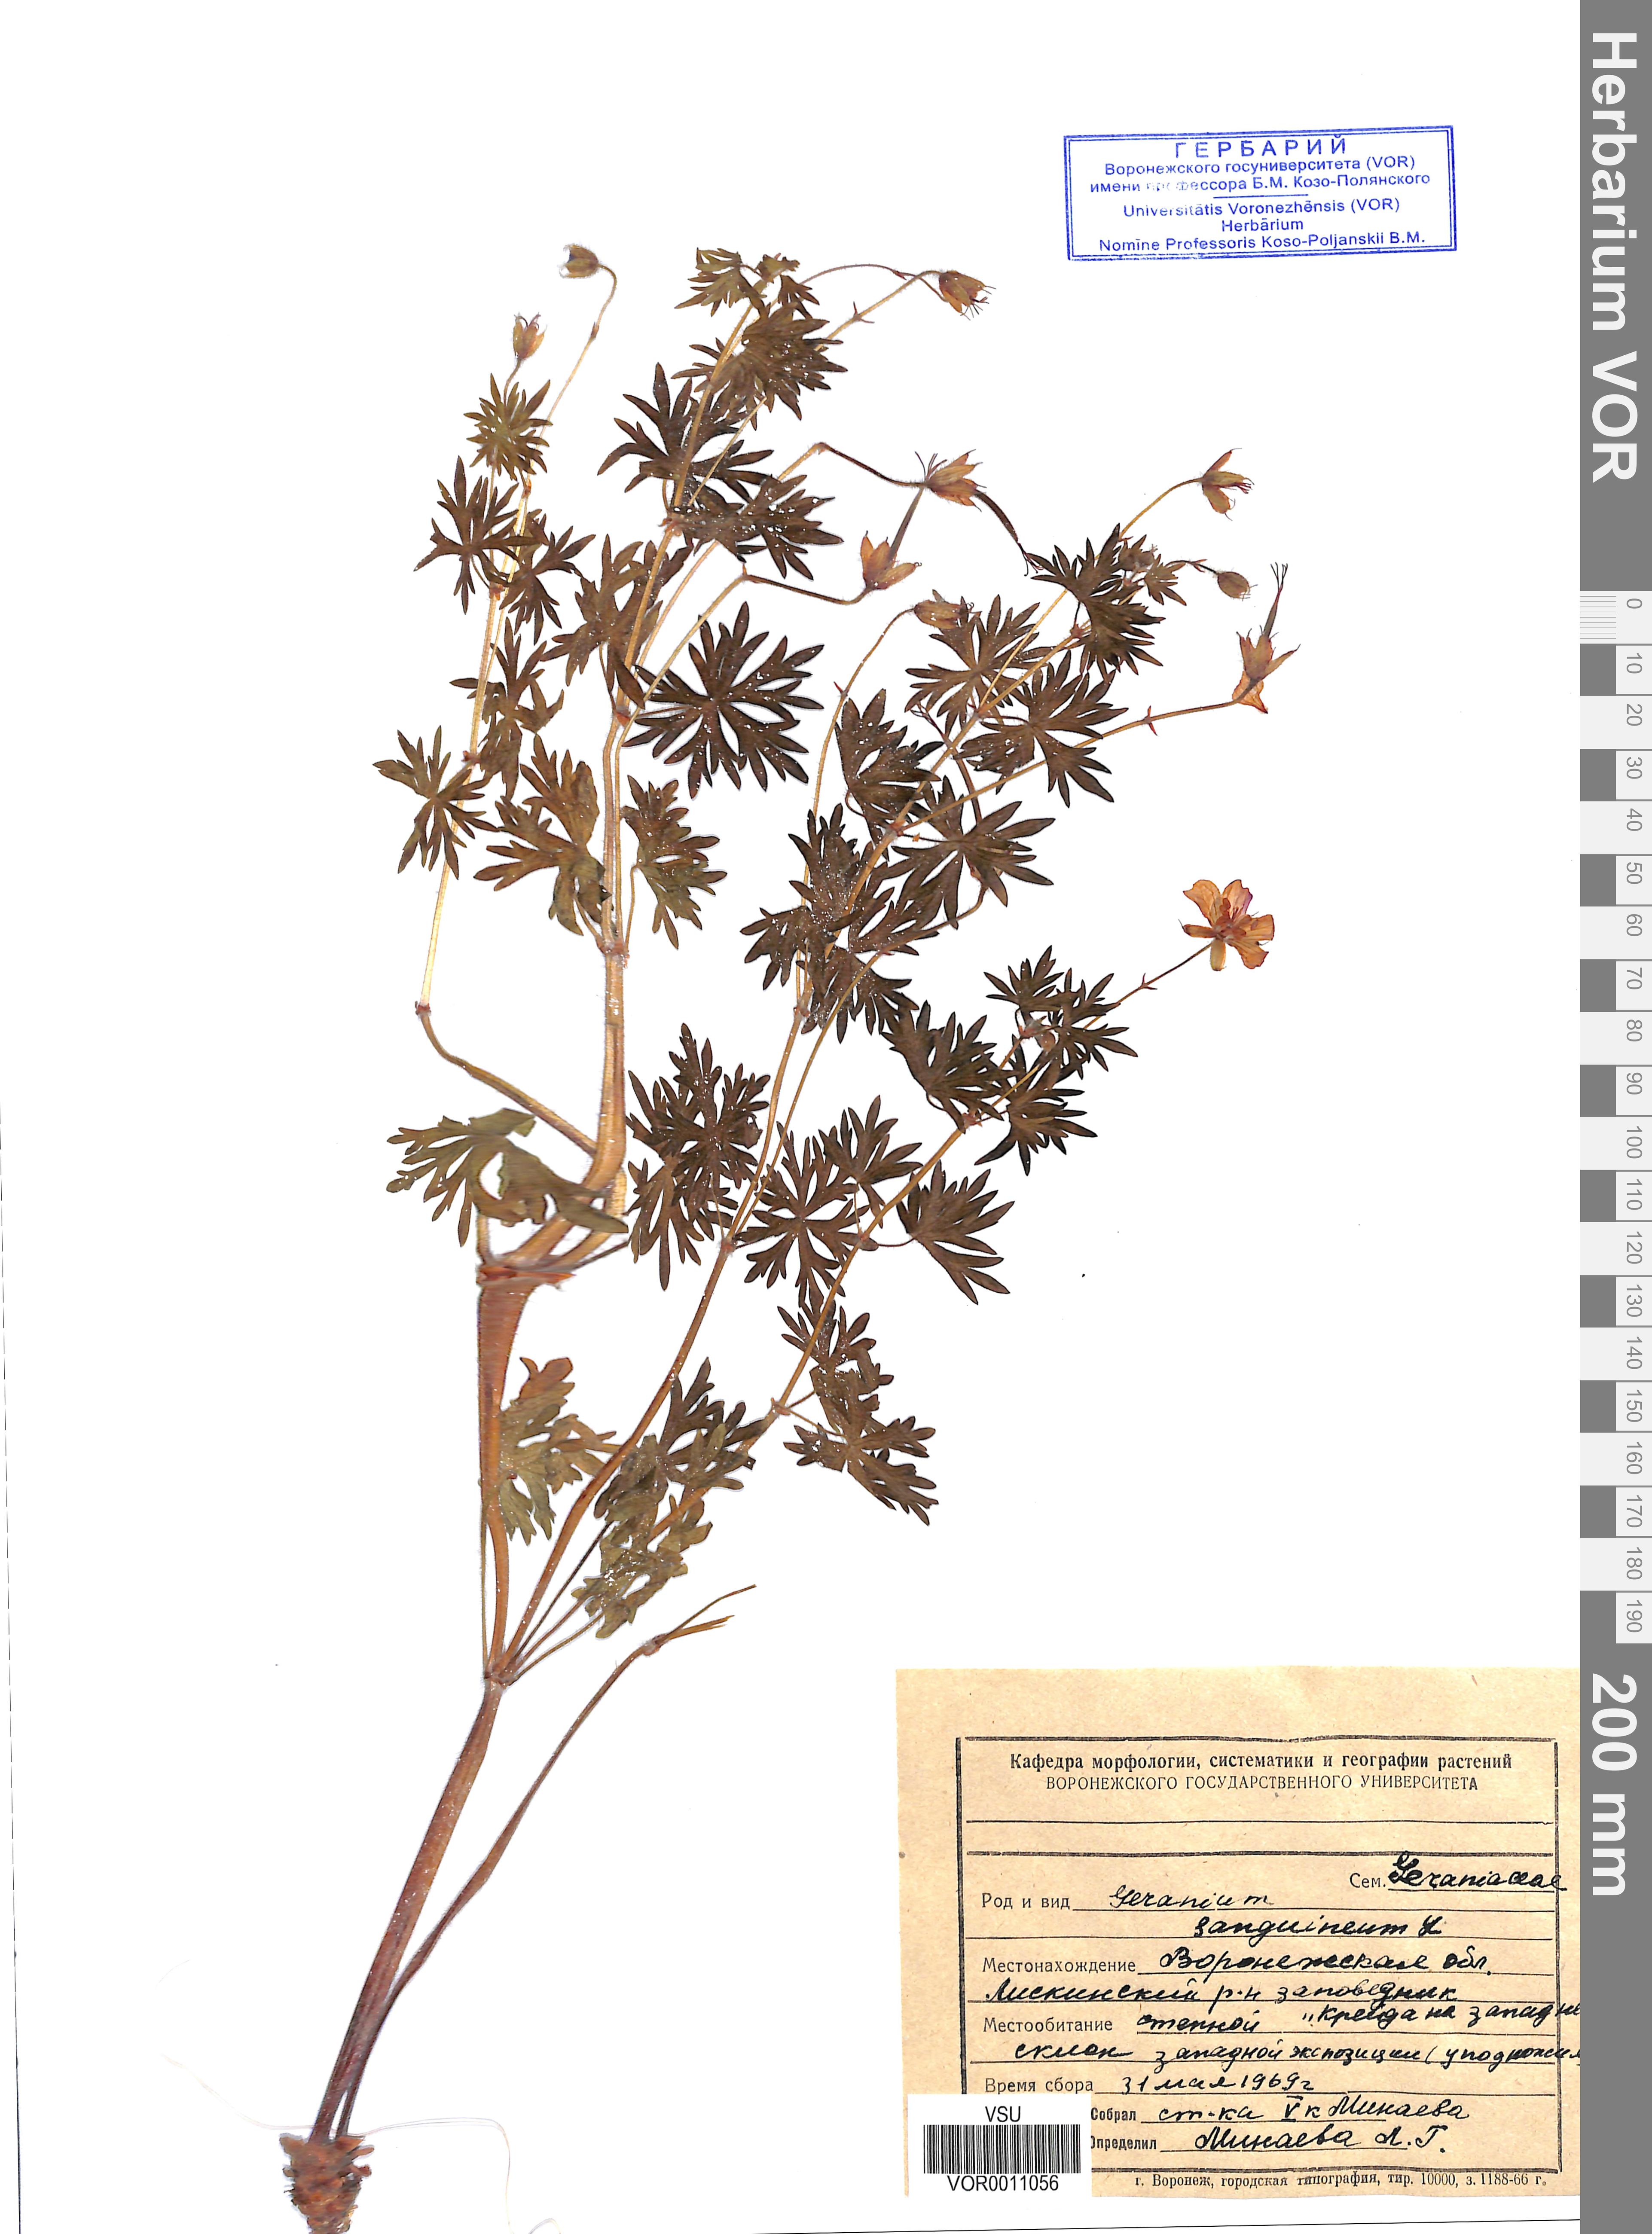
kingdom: Plantae
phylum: Tracheophyta
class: Magnoliopsida
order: Geraniales
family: Geraniaceae
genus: Geranium
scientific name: Geranium sanguineum
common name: Bloody crane's-bill
